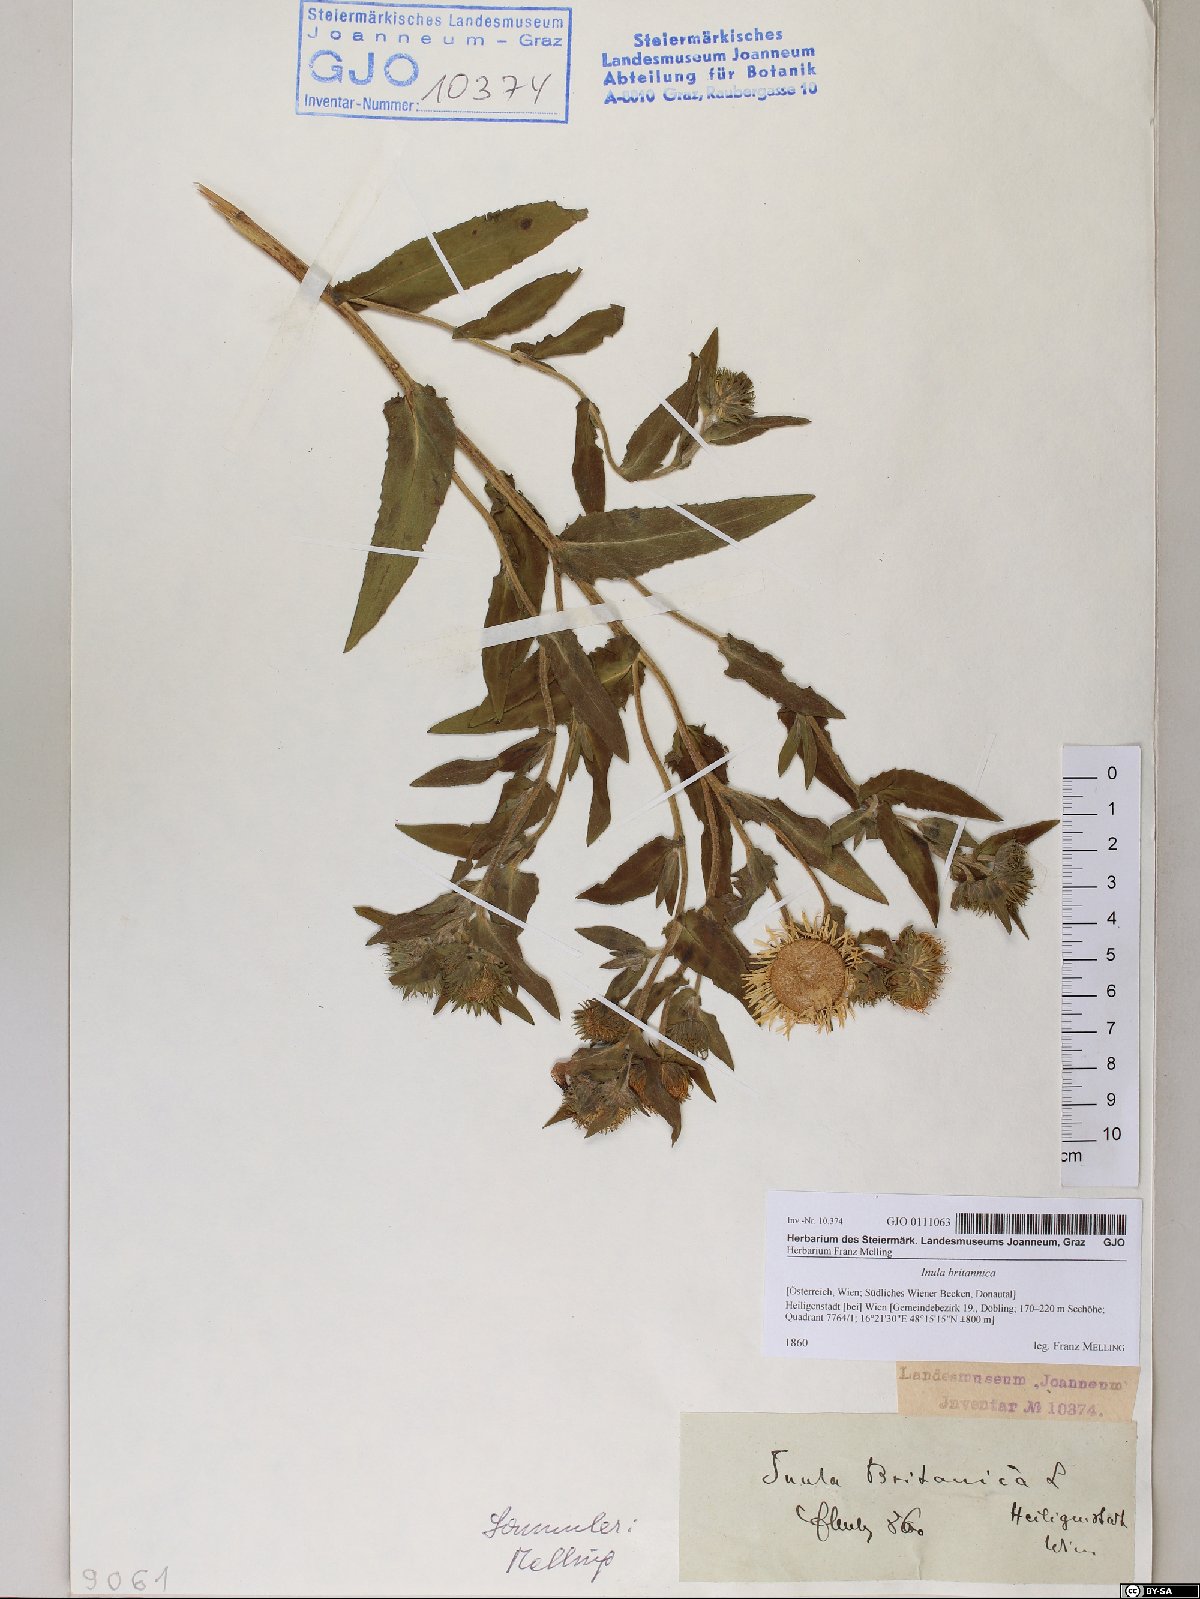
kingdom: Plantae
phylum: Tracheophyta
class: Magnoliopsida
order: Asterales
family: Asteraceae
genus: Pentanema
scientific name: Pentanema britannicum
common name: British elecampane
